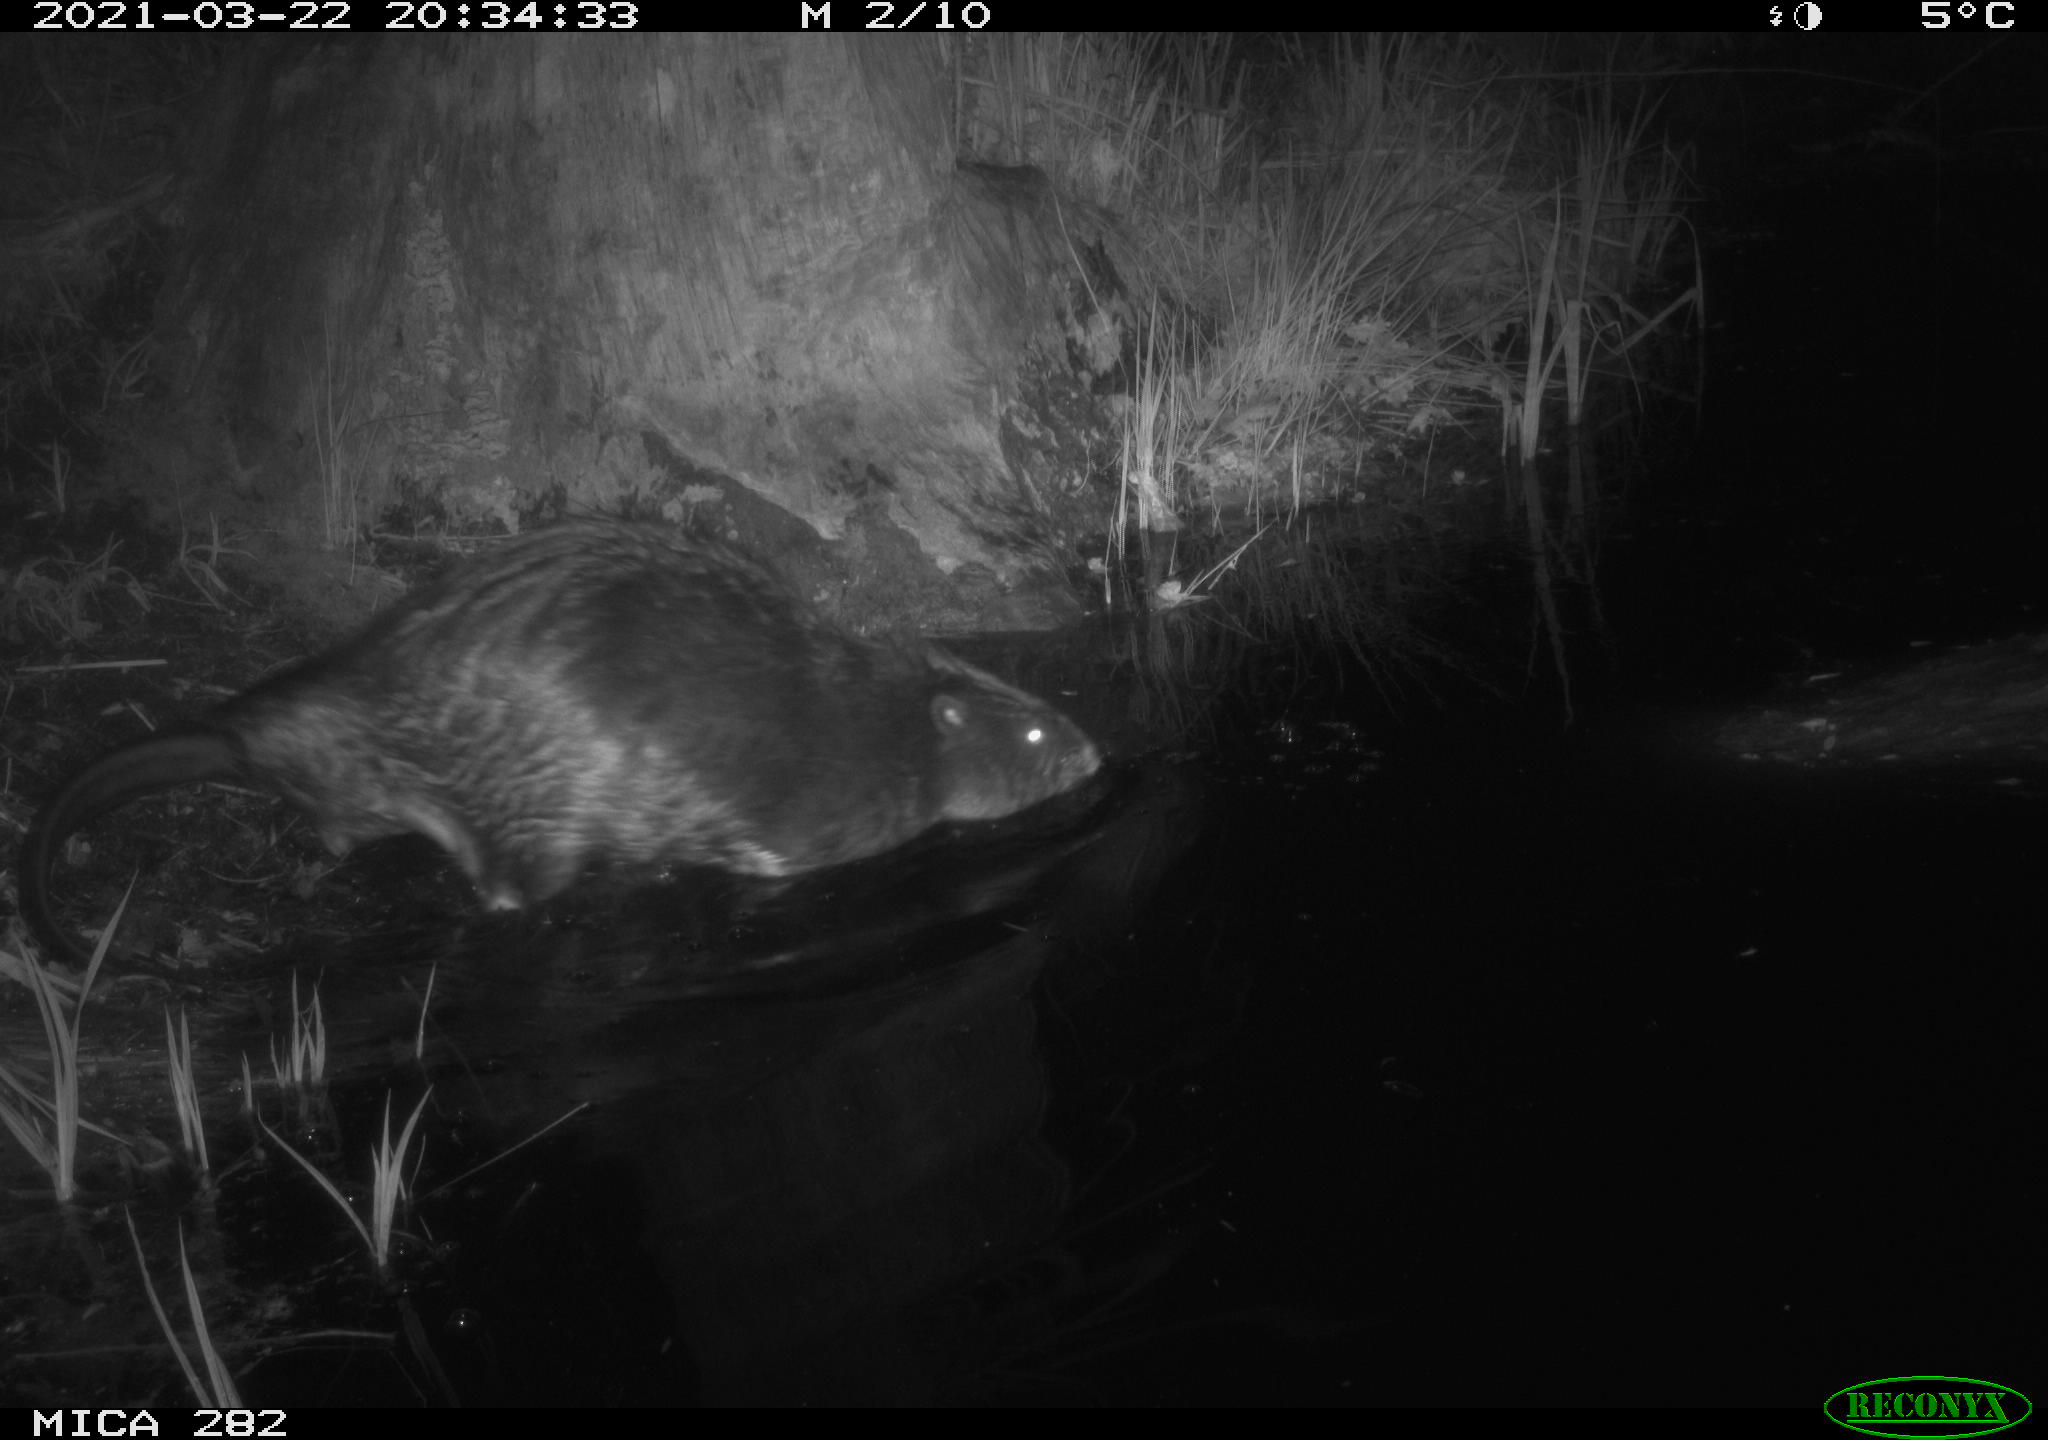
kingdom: Animalia
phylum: Chordata
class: Mammalia
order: Rodentia
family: Castoridae
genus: Castor
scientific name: Castor fiber
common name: Eurasian beaver
